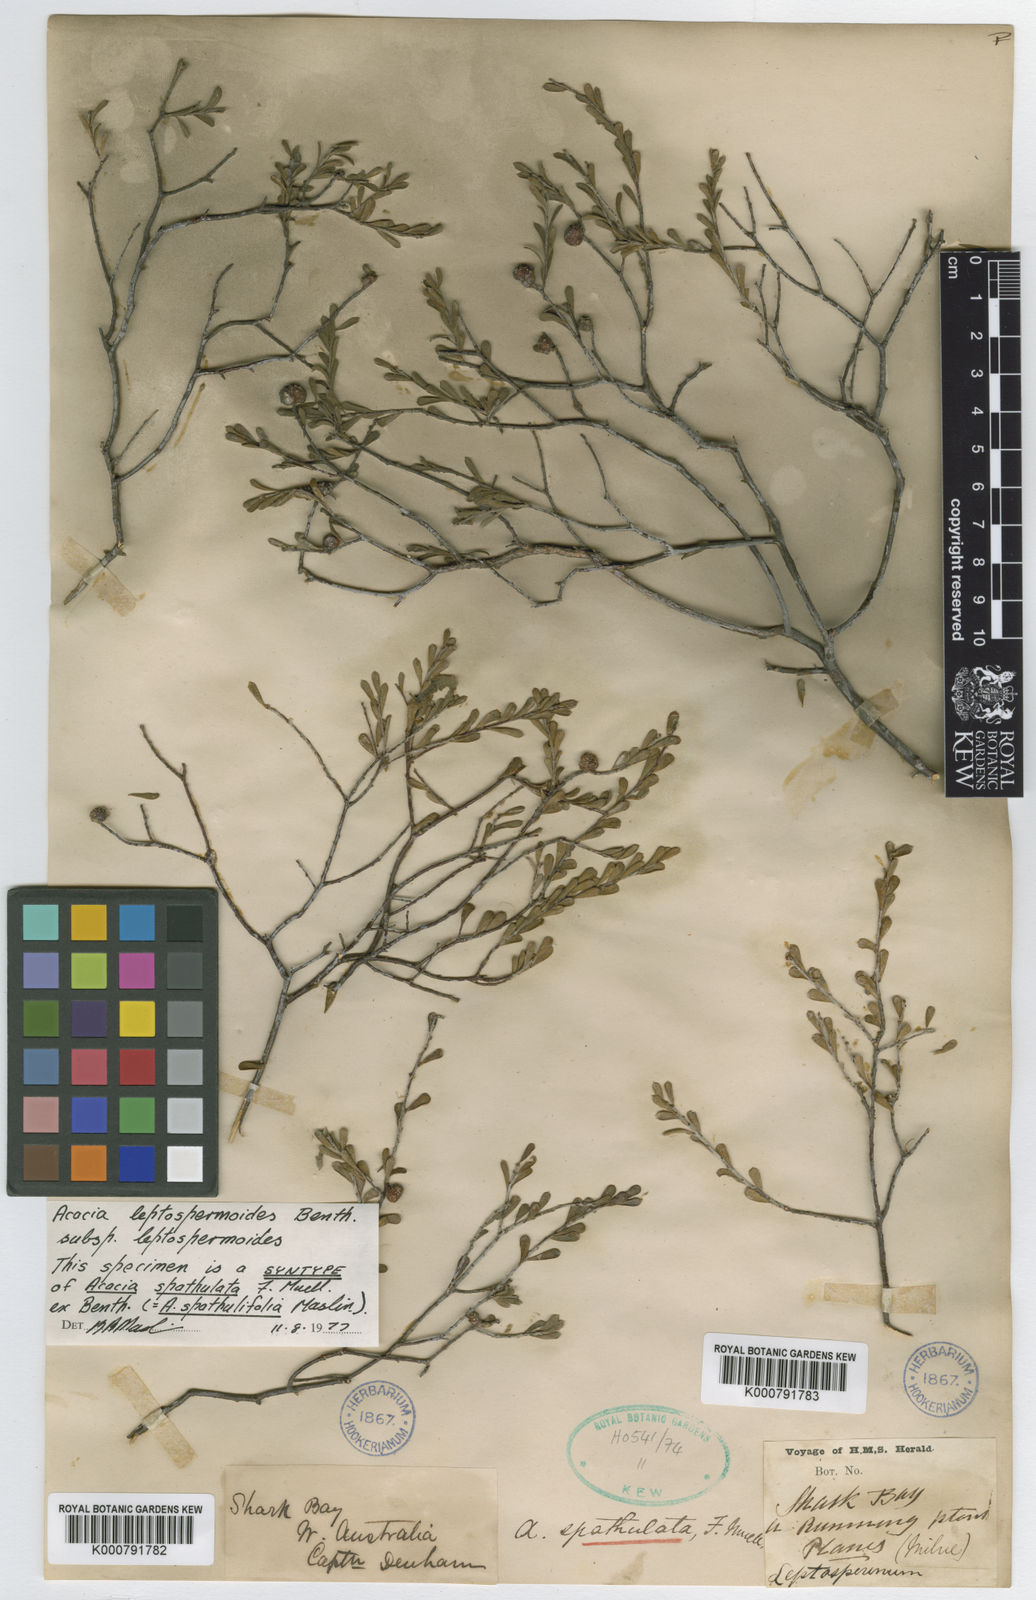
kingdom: Plantae
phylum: Tracheophyta
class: Magnoliopsida
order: Fabales
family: Fabaceae
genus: Acacia
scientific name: Acacia spathulifolia
